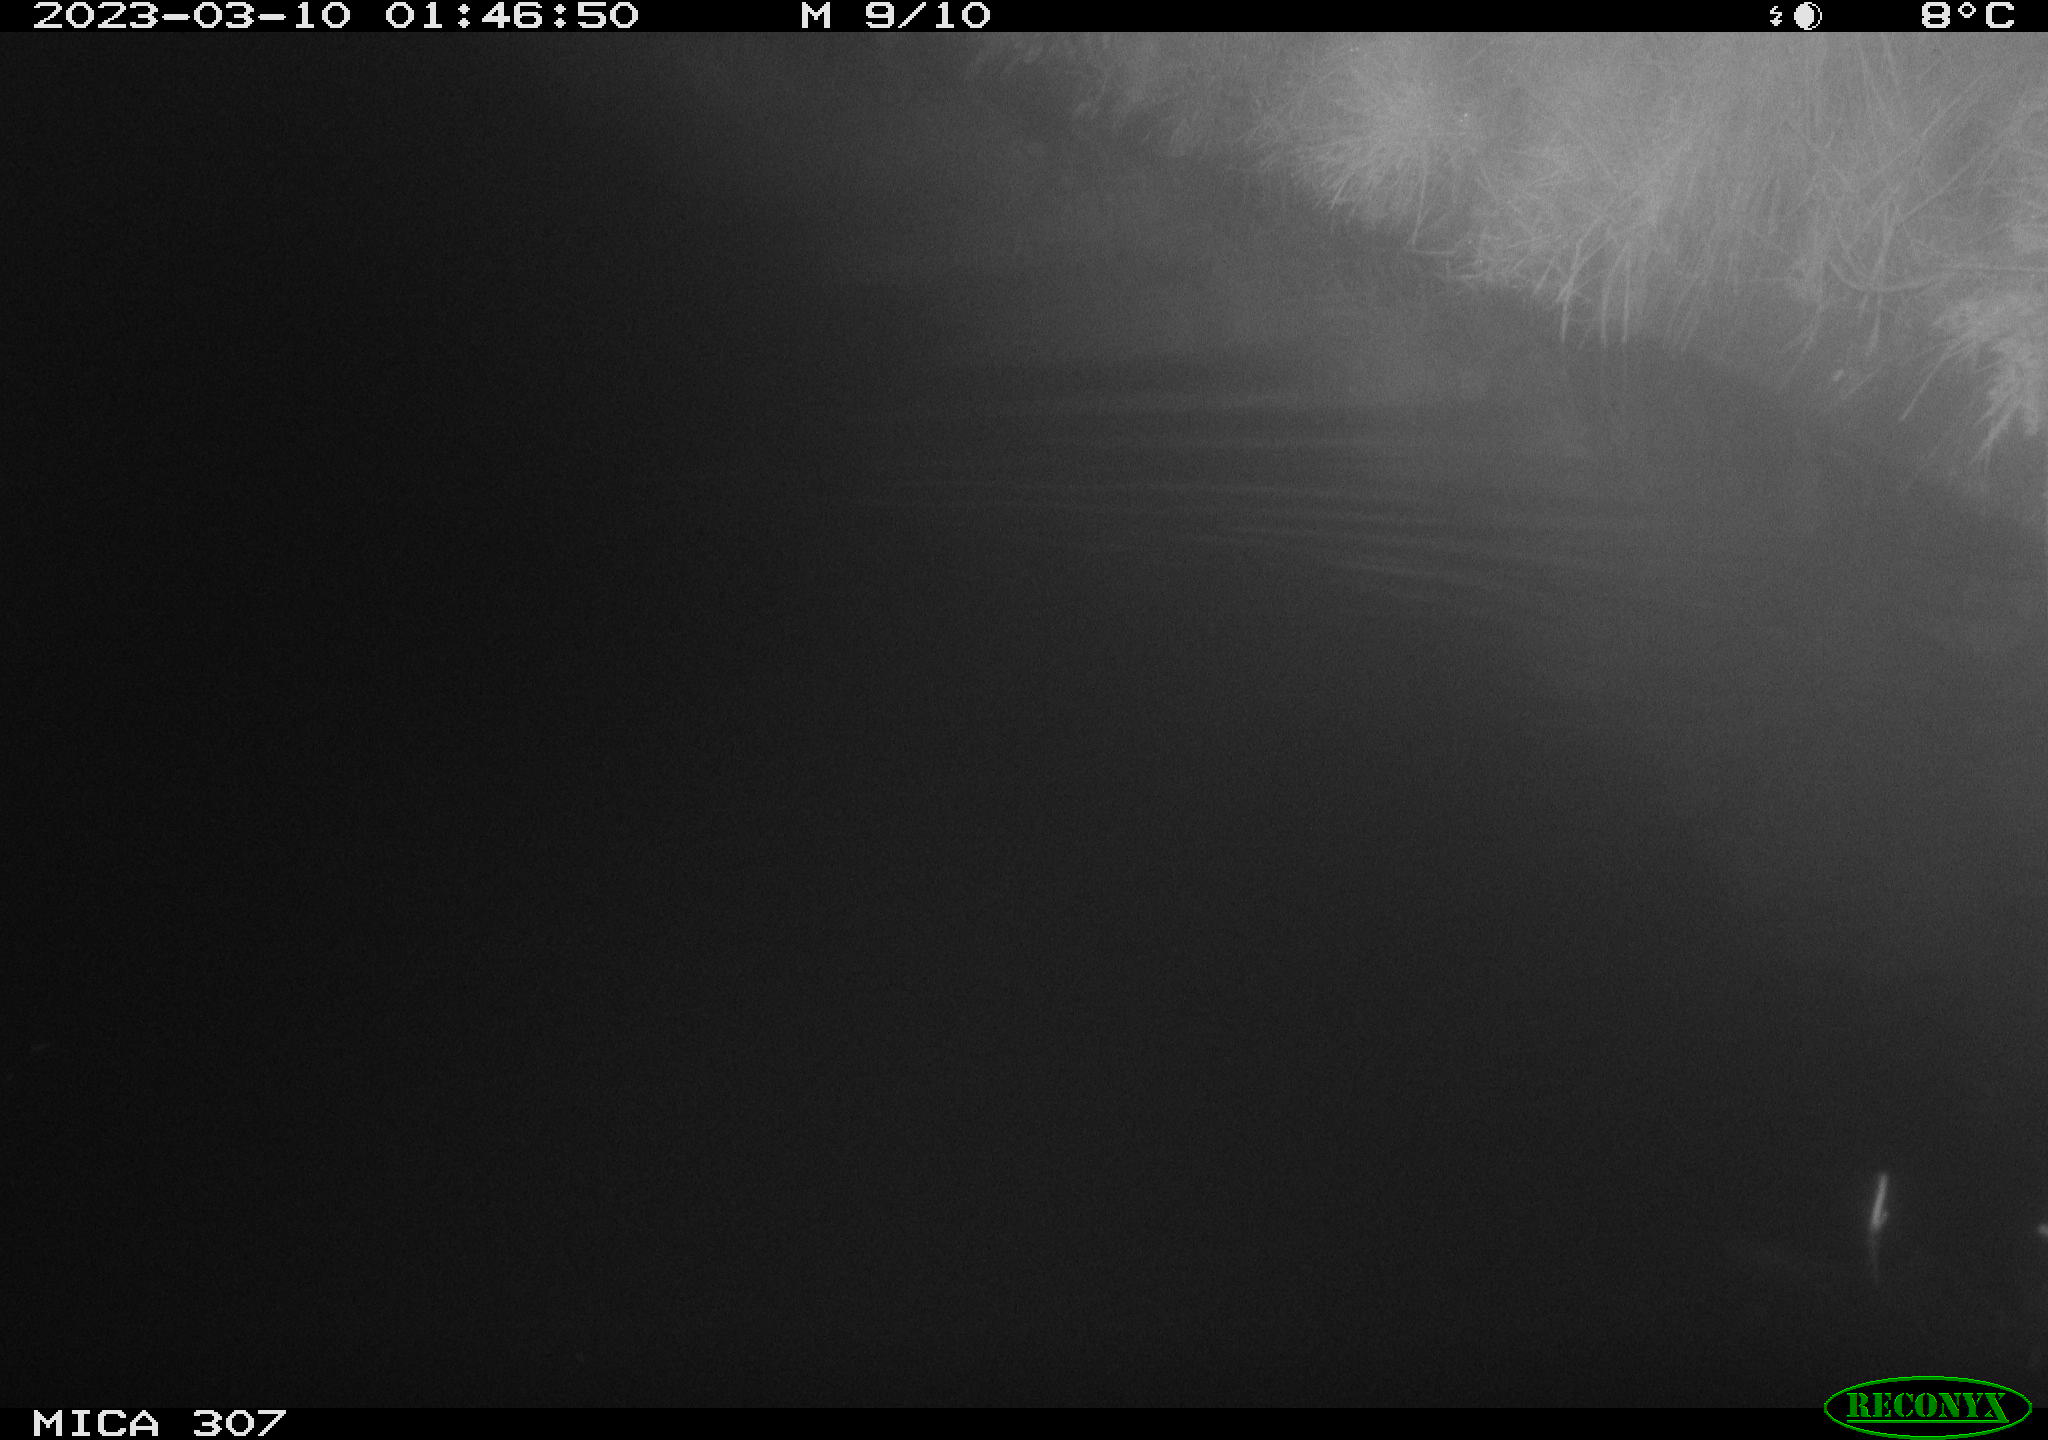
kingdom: Animalia
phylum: Chordata
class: Mammalia
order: Rodentia
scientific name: Rodentia
